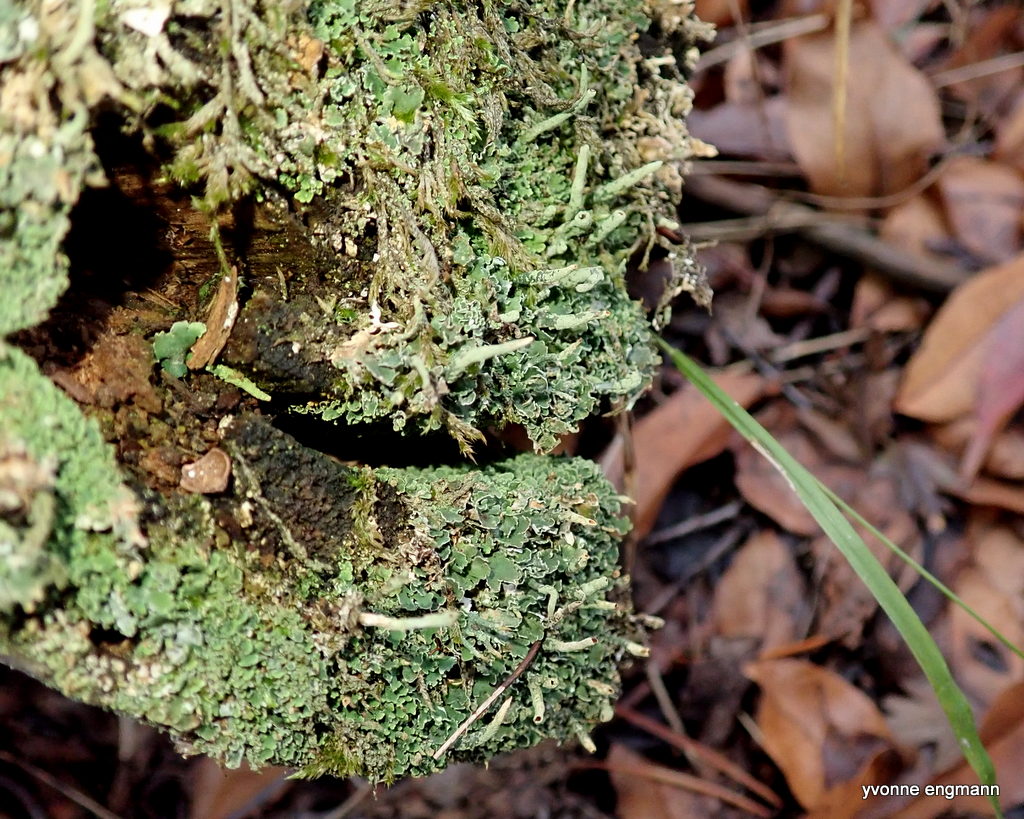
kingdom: Fungi
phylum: Ascomycota
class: Lecanoromycetes
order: Lecanorales
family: Cladoniaceae
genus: Cladonia
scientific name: Cladonia ochrochlora
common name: stød-bægerlav
